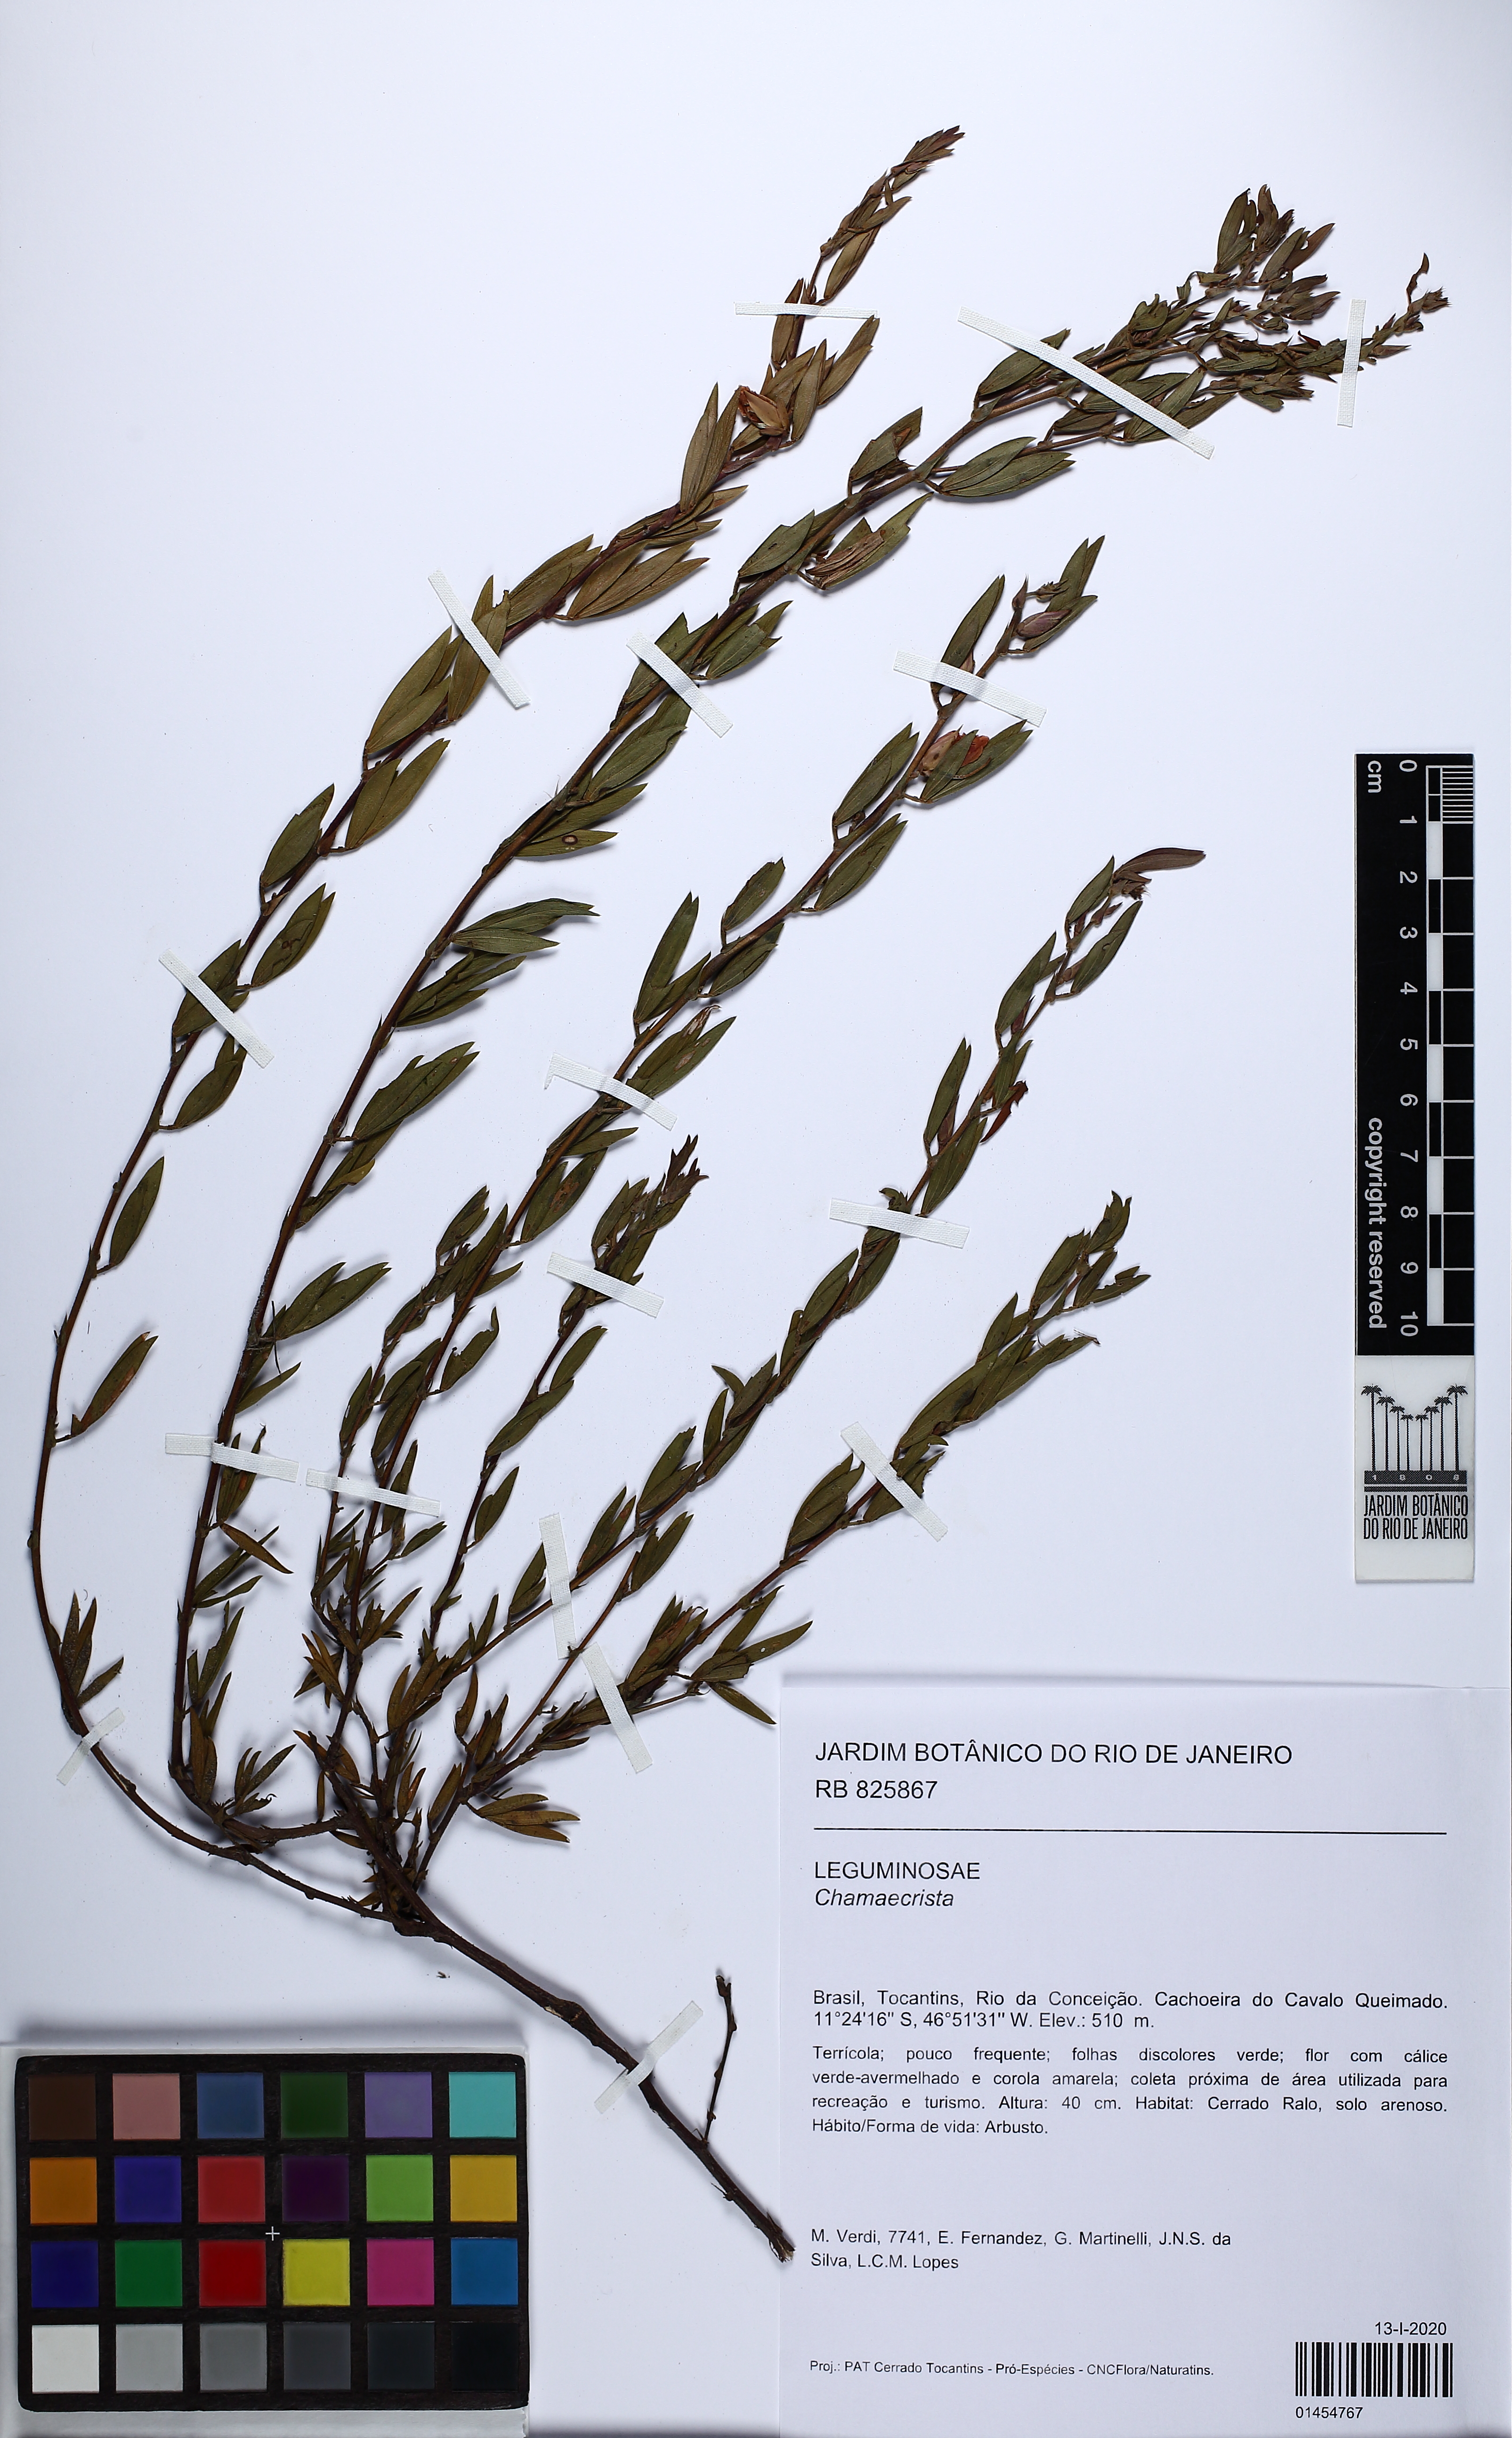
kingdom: Plantae
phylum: Tracheophyta
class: Magnoliopsida
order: Fabales
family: Fabaceae
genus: Chamaecrista
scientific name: Chamaecrista
